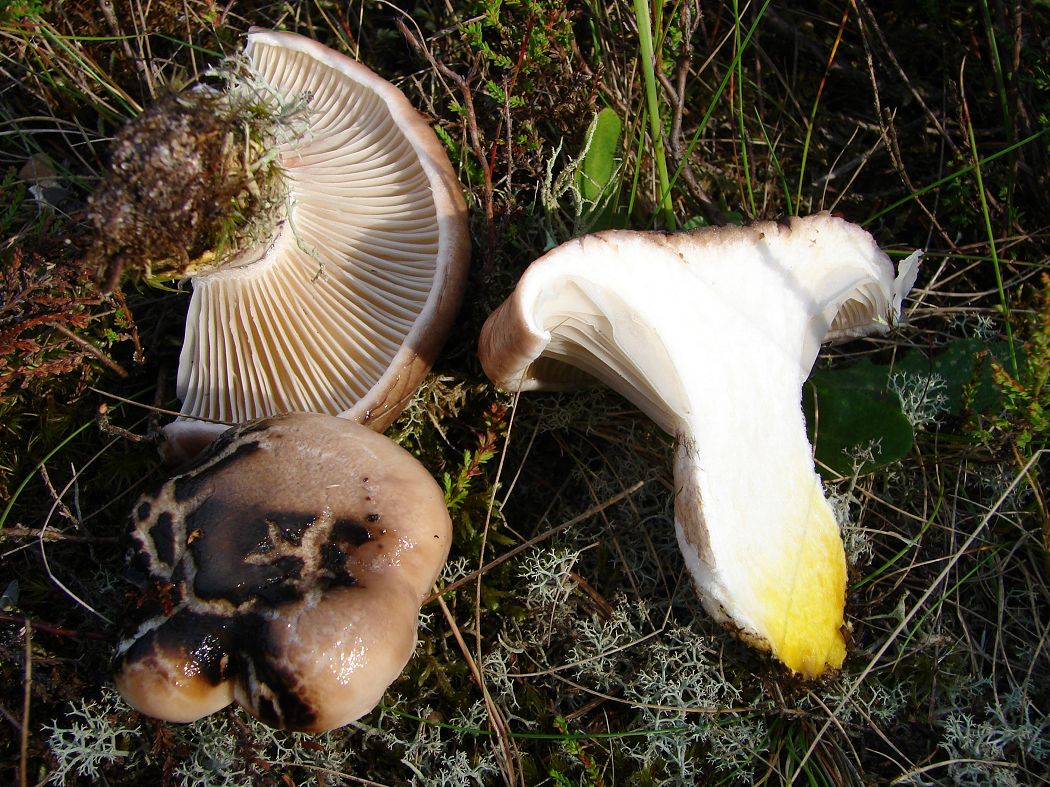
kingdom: Fungi
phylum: Basidiomycota
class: Agaricomycetes
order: Boletales
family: Gomphidiaceae
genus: Gomphidius
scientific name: Gomphidius glutinosus
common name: grå slimslør
